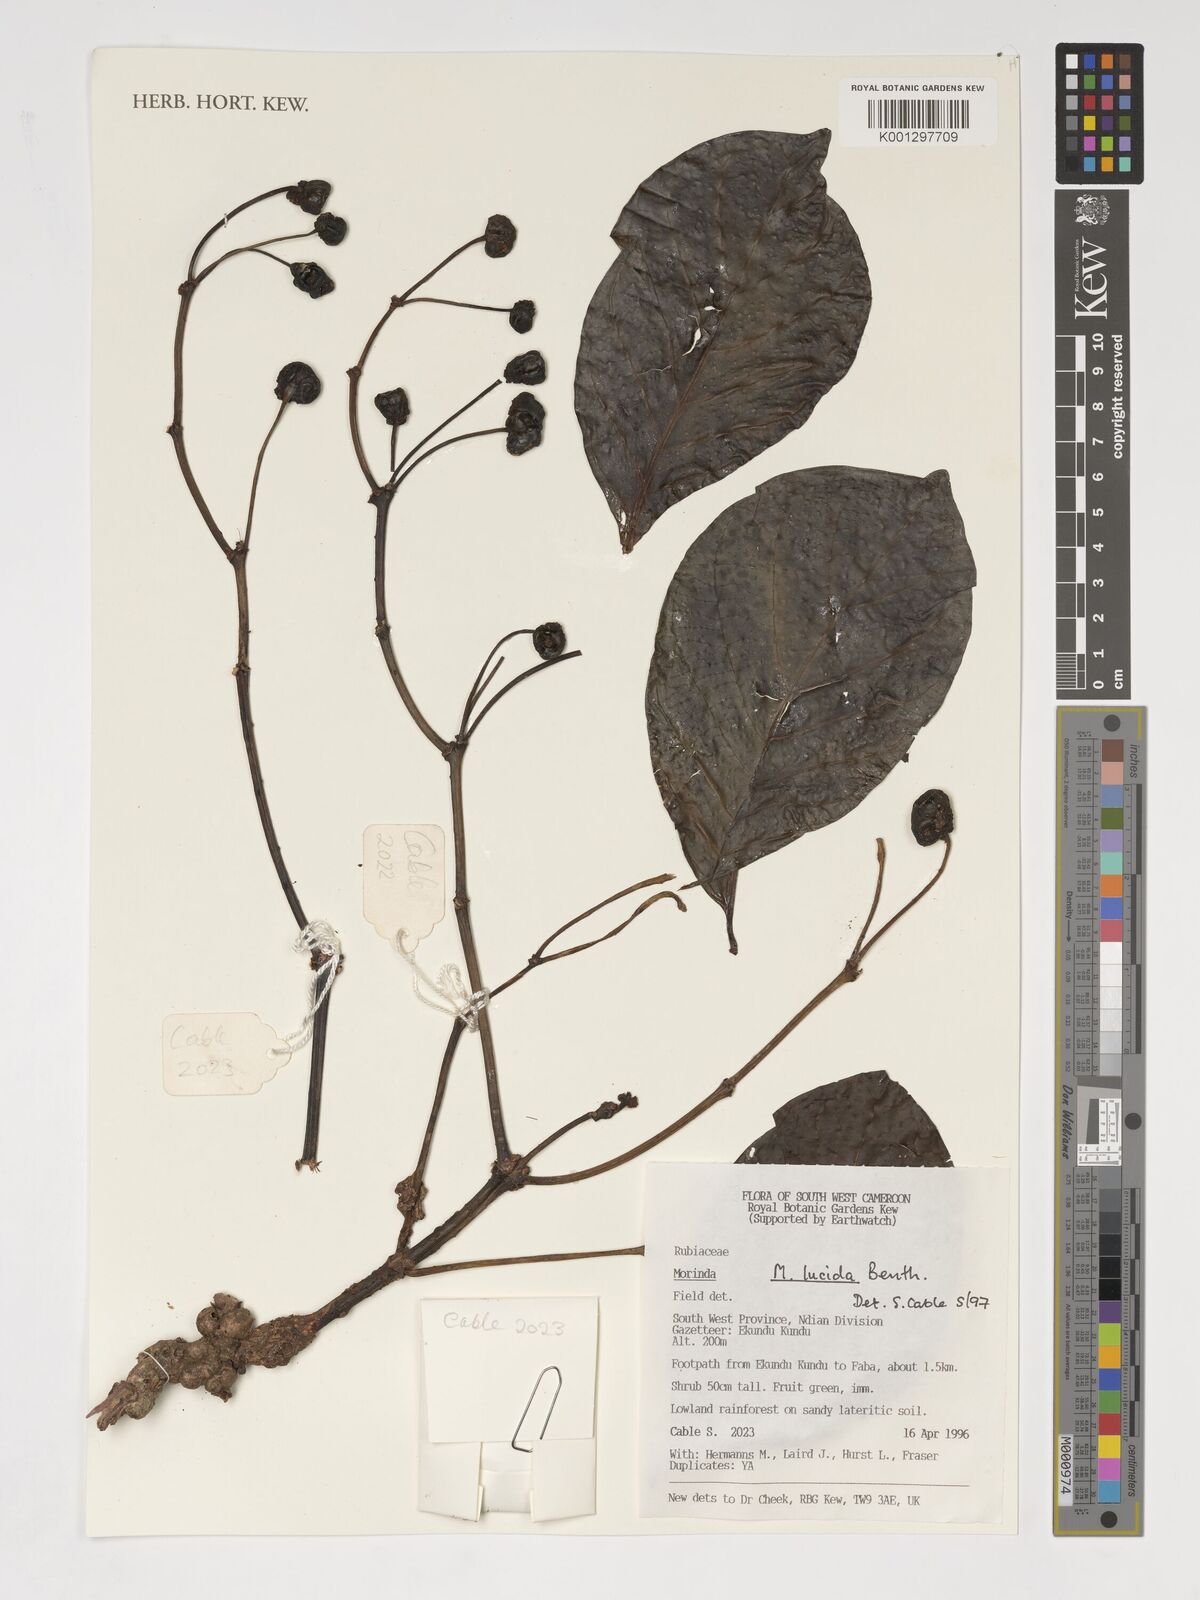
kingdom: Plantae
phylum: Tracheophyta
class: Magnoliopsida
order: Gentianales
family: Rubiaceae
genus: Morinda
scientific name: Morinda lucida
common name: Brimstonetree
